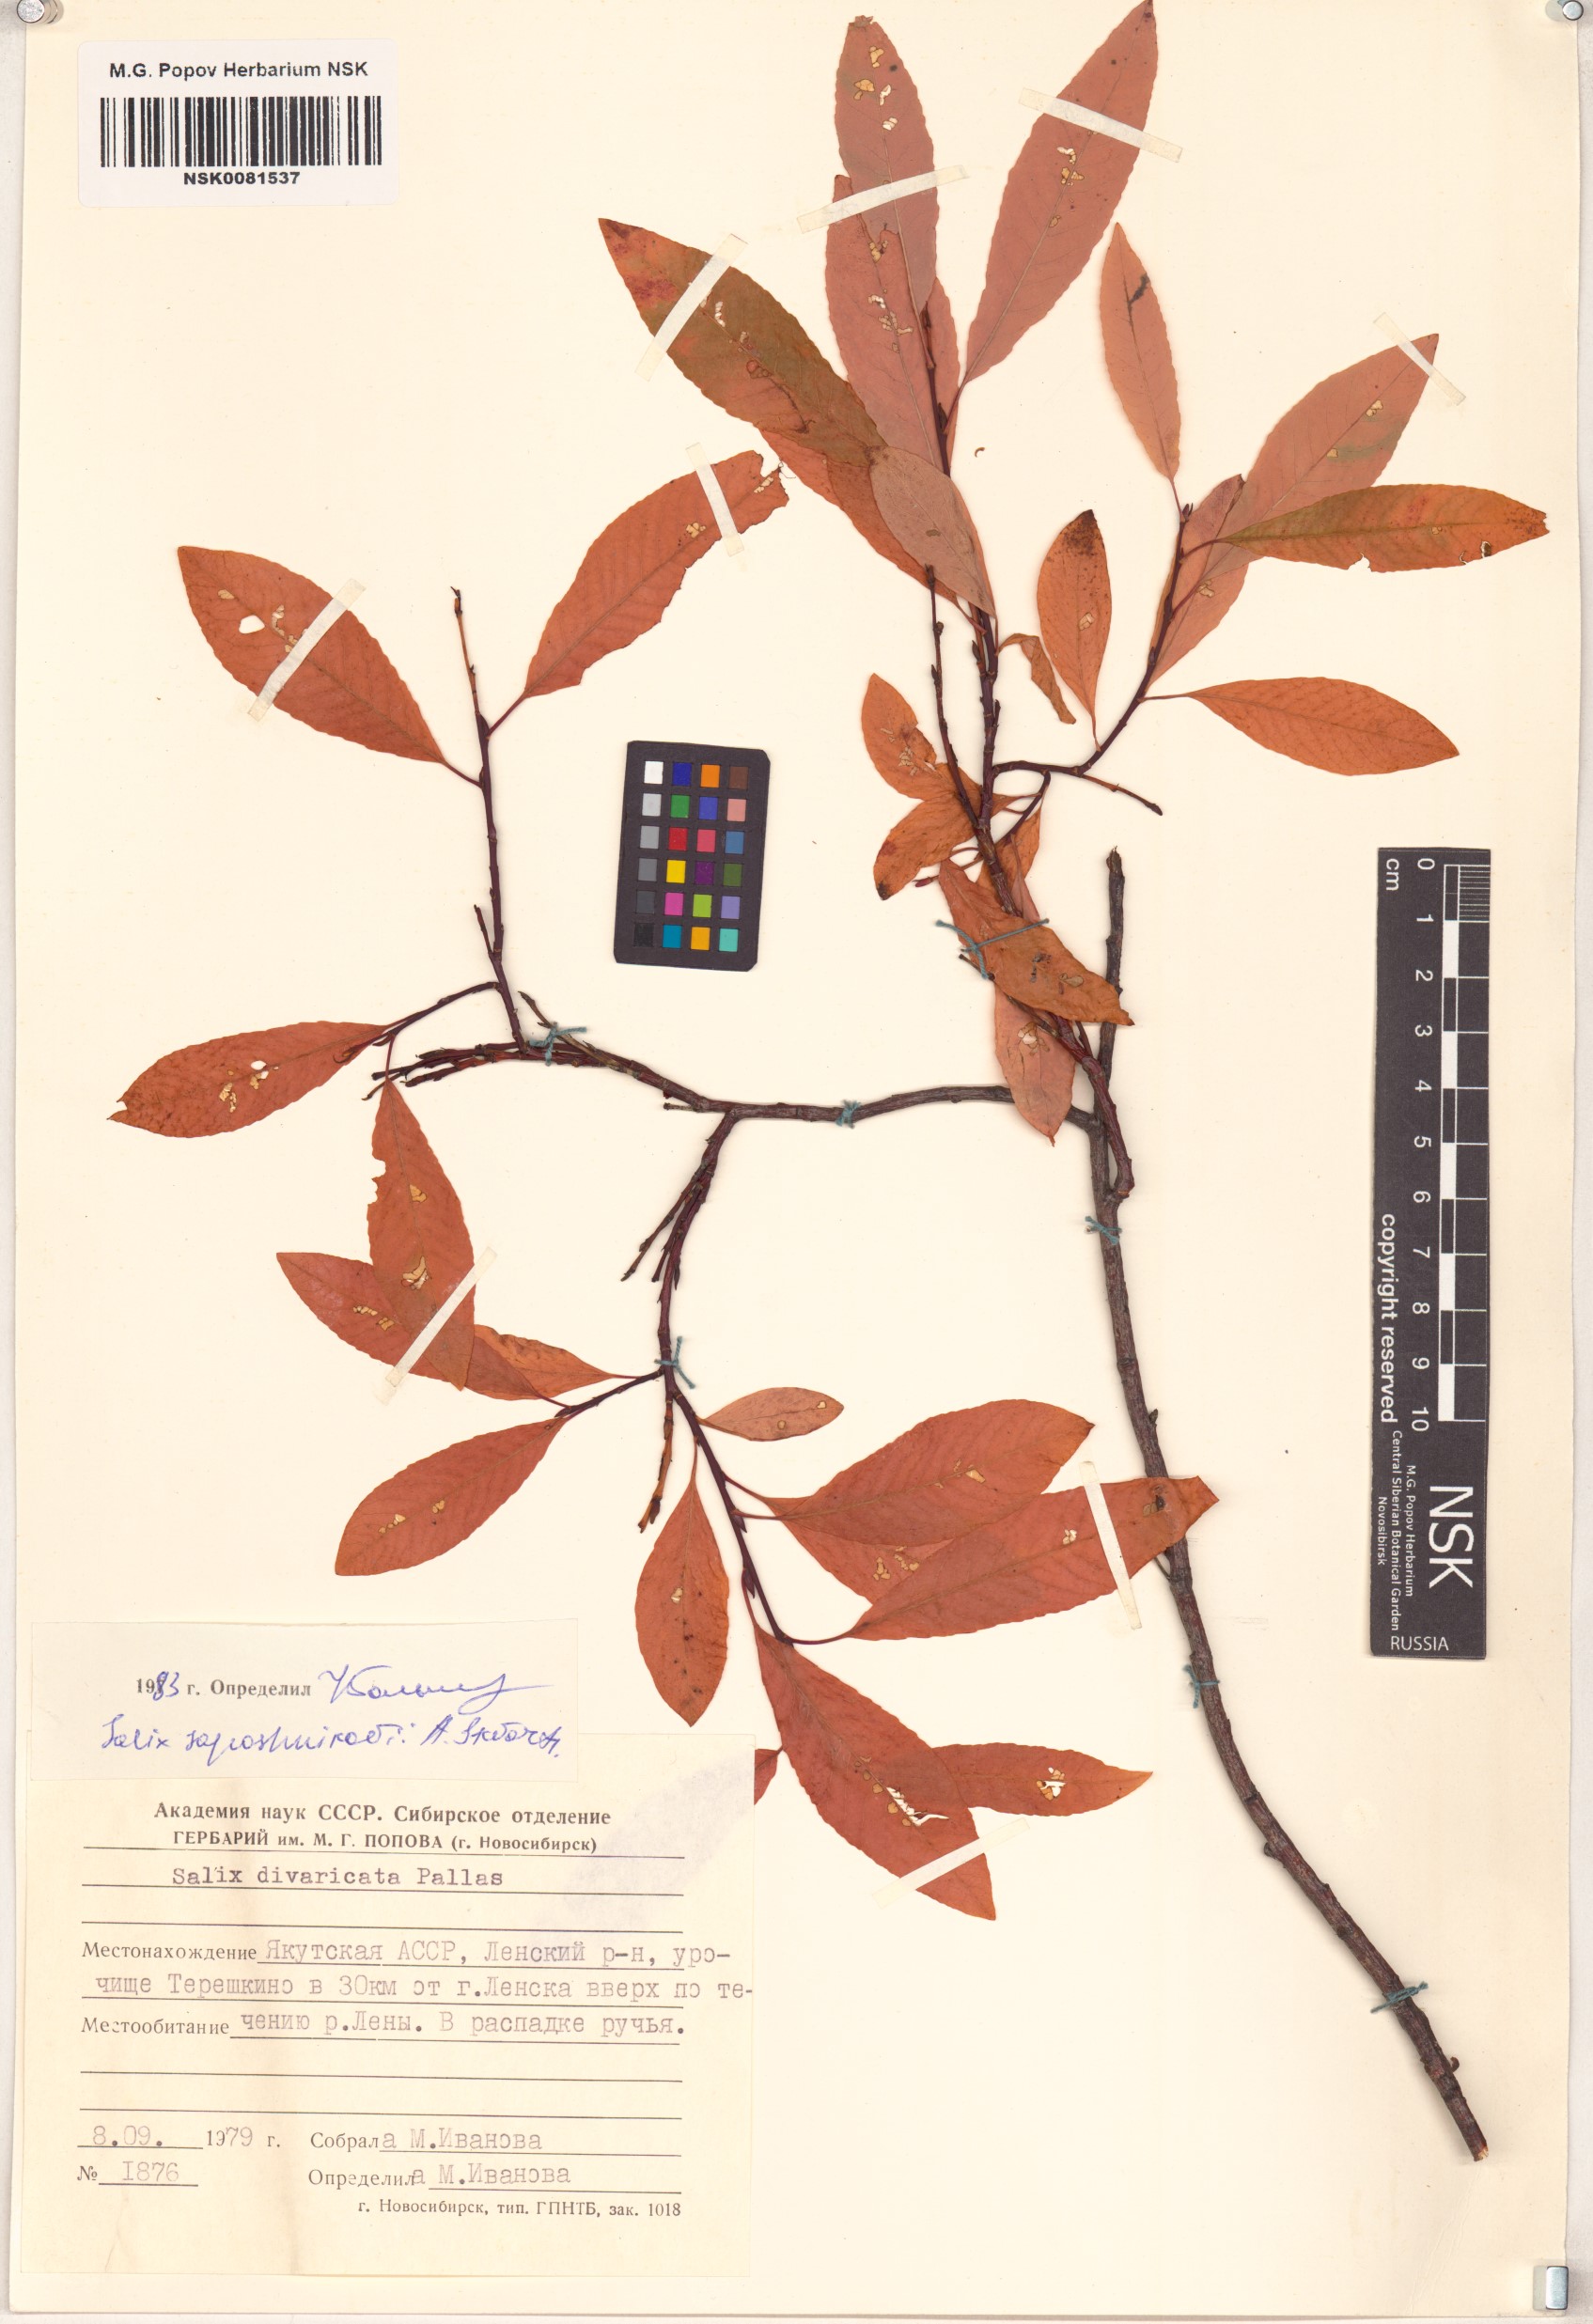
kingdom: Plantae
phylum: Tracheophyta
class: Magnoliopsida
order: Malpighiales
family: Salicaceae
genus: Salix
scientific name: Salix saposhnikovii
